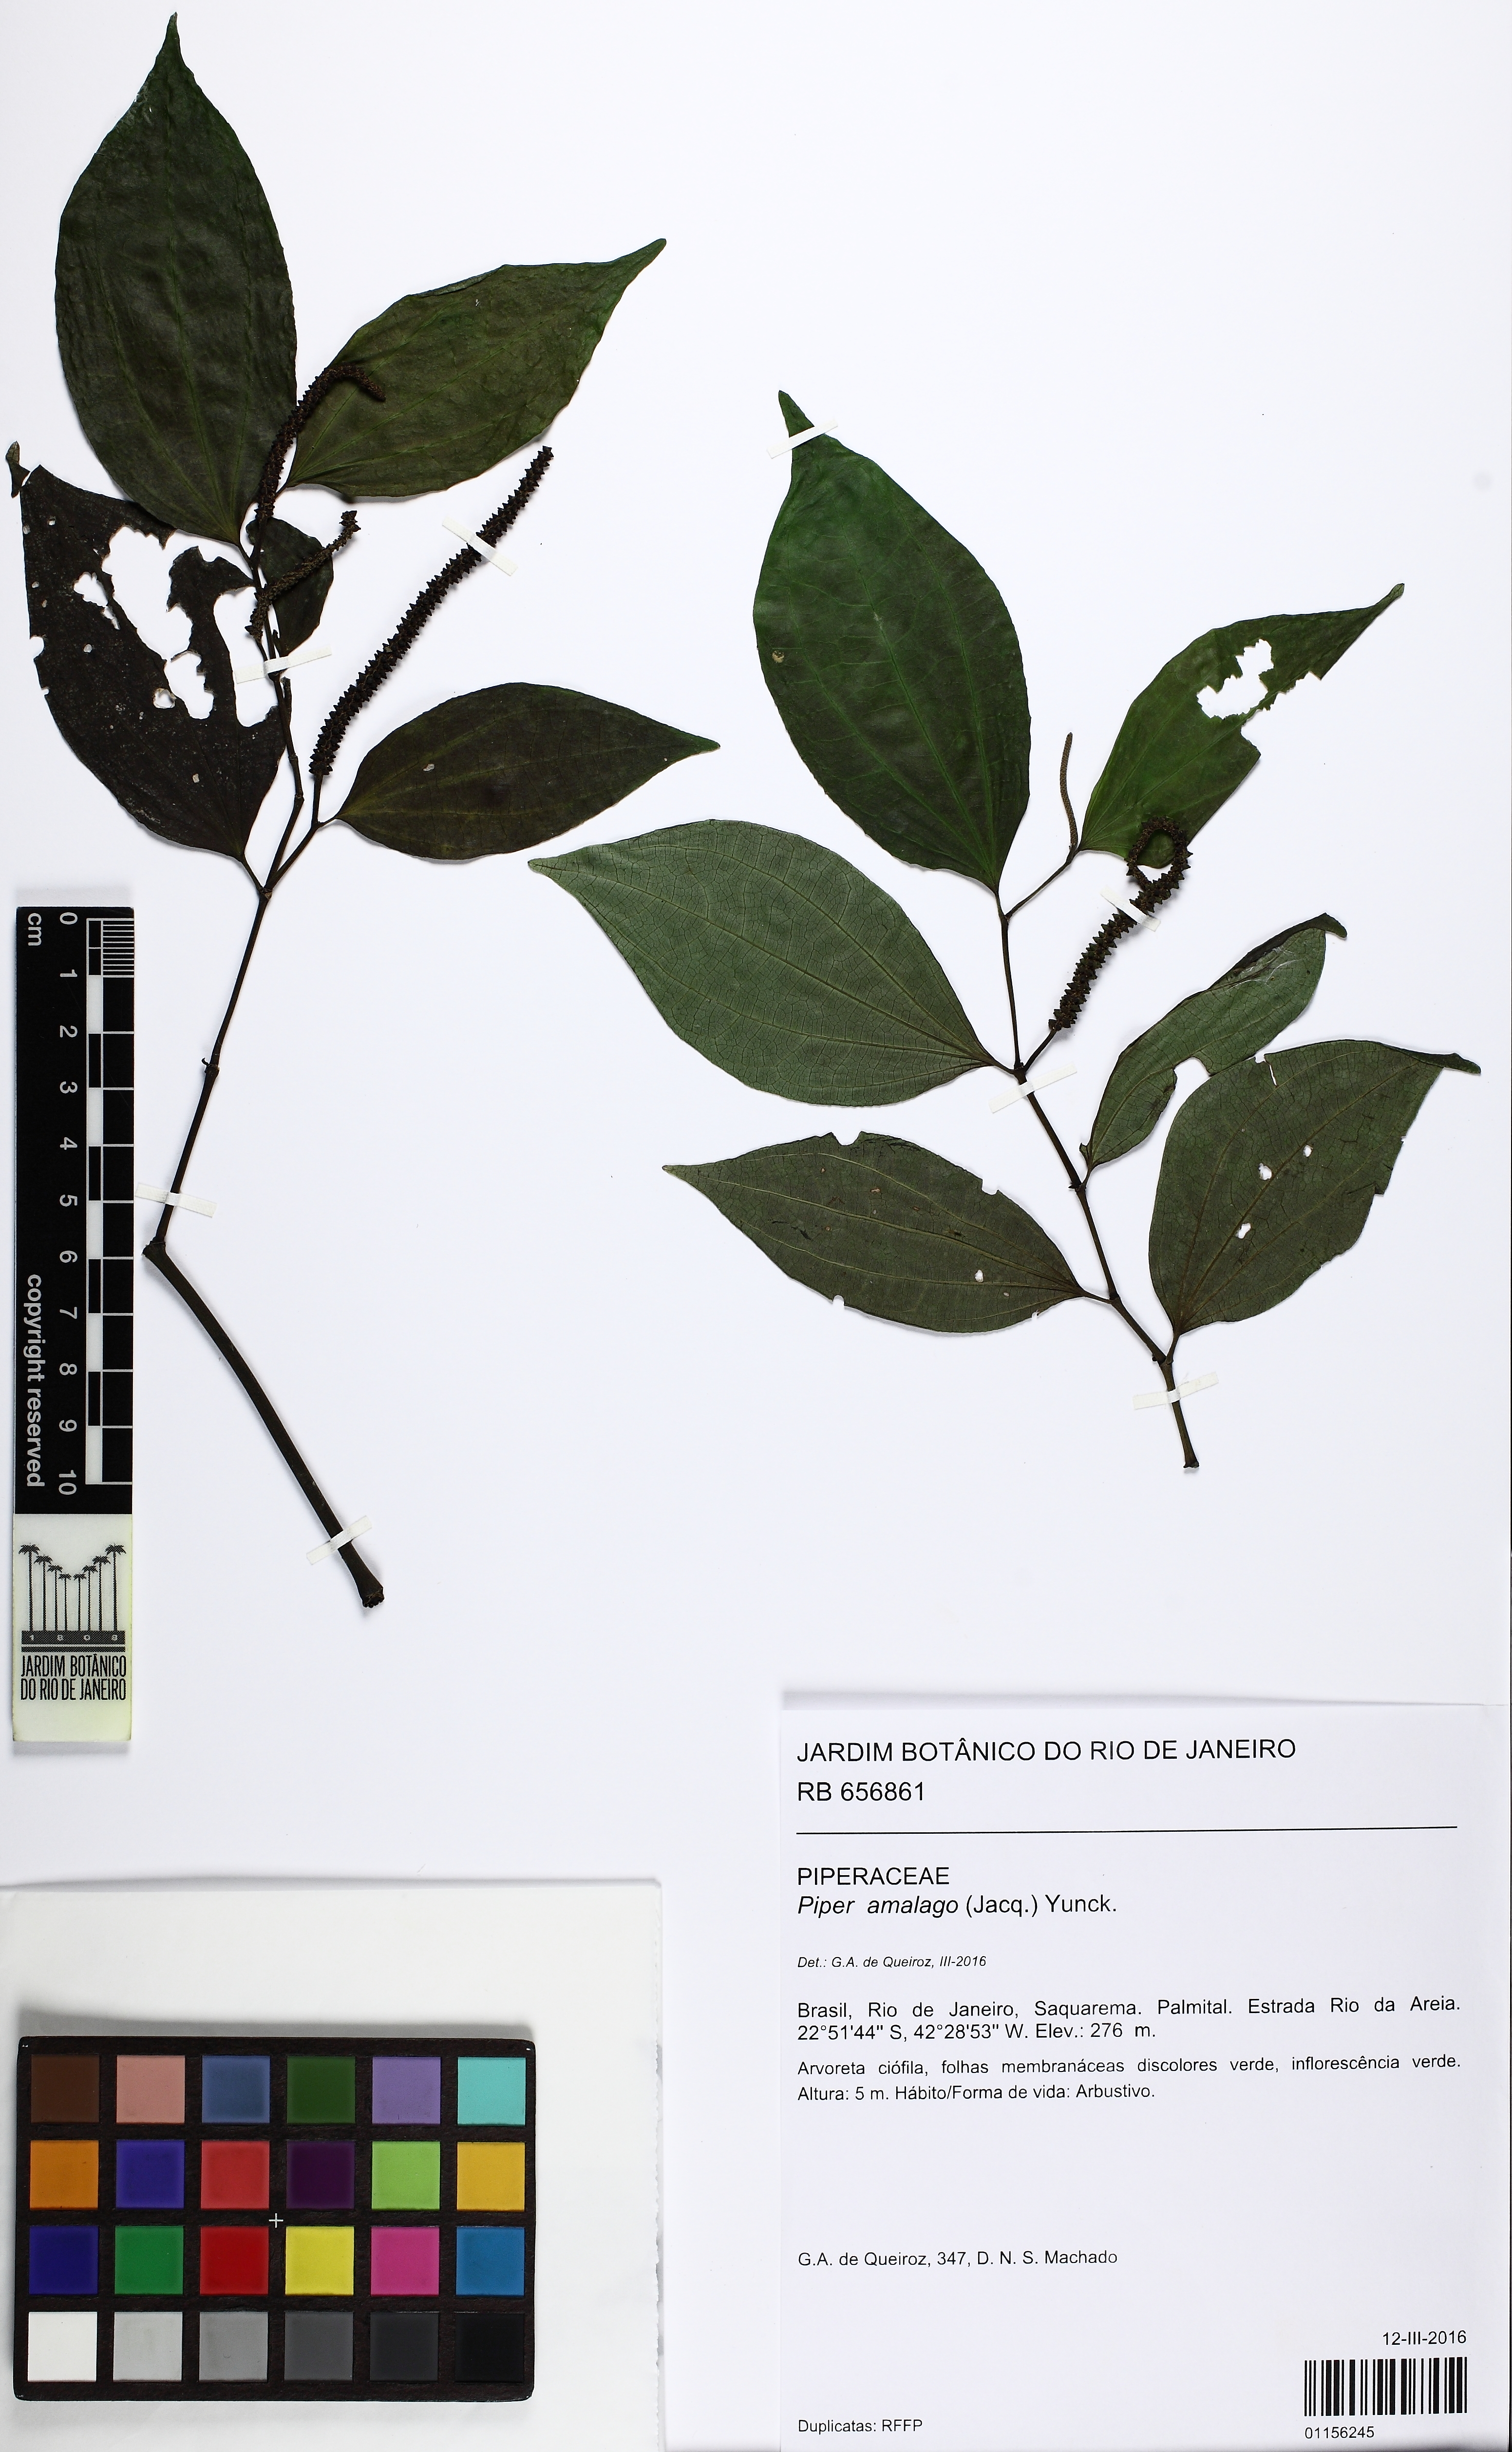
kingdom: Plantae
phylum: Tracheophyta
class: Magnoliopsida
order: Piperales
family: Piperaceae
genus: Piper
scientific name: Piper amalago
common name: Pepper-elder
